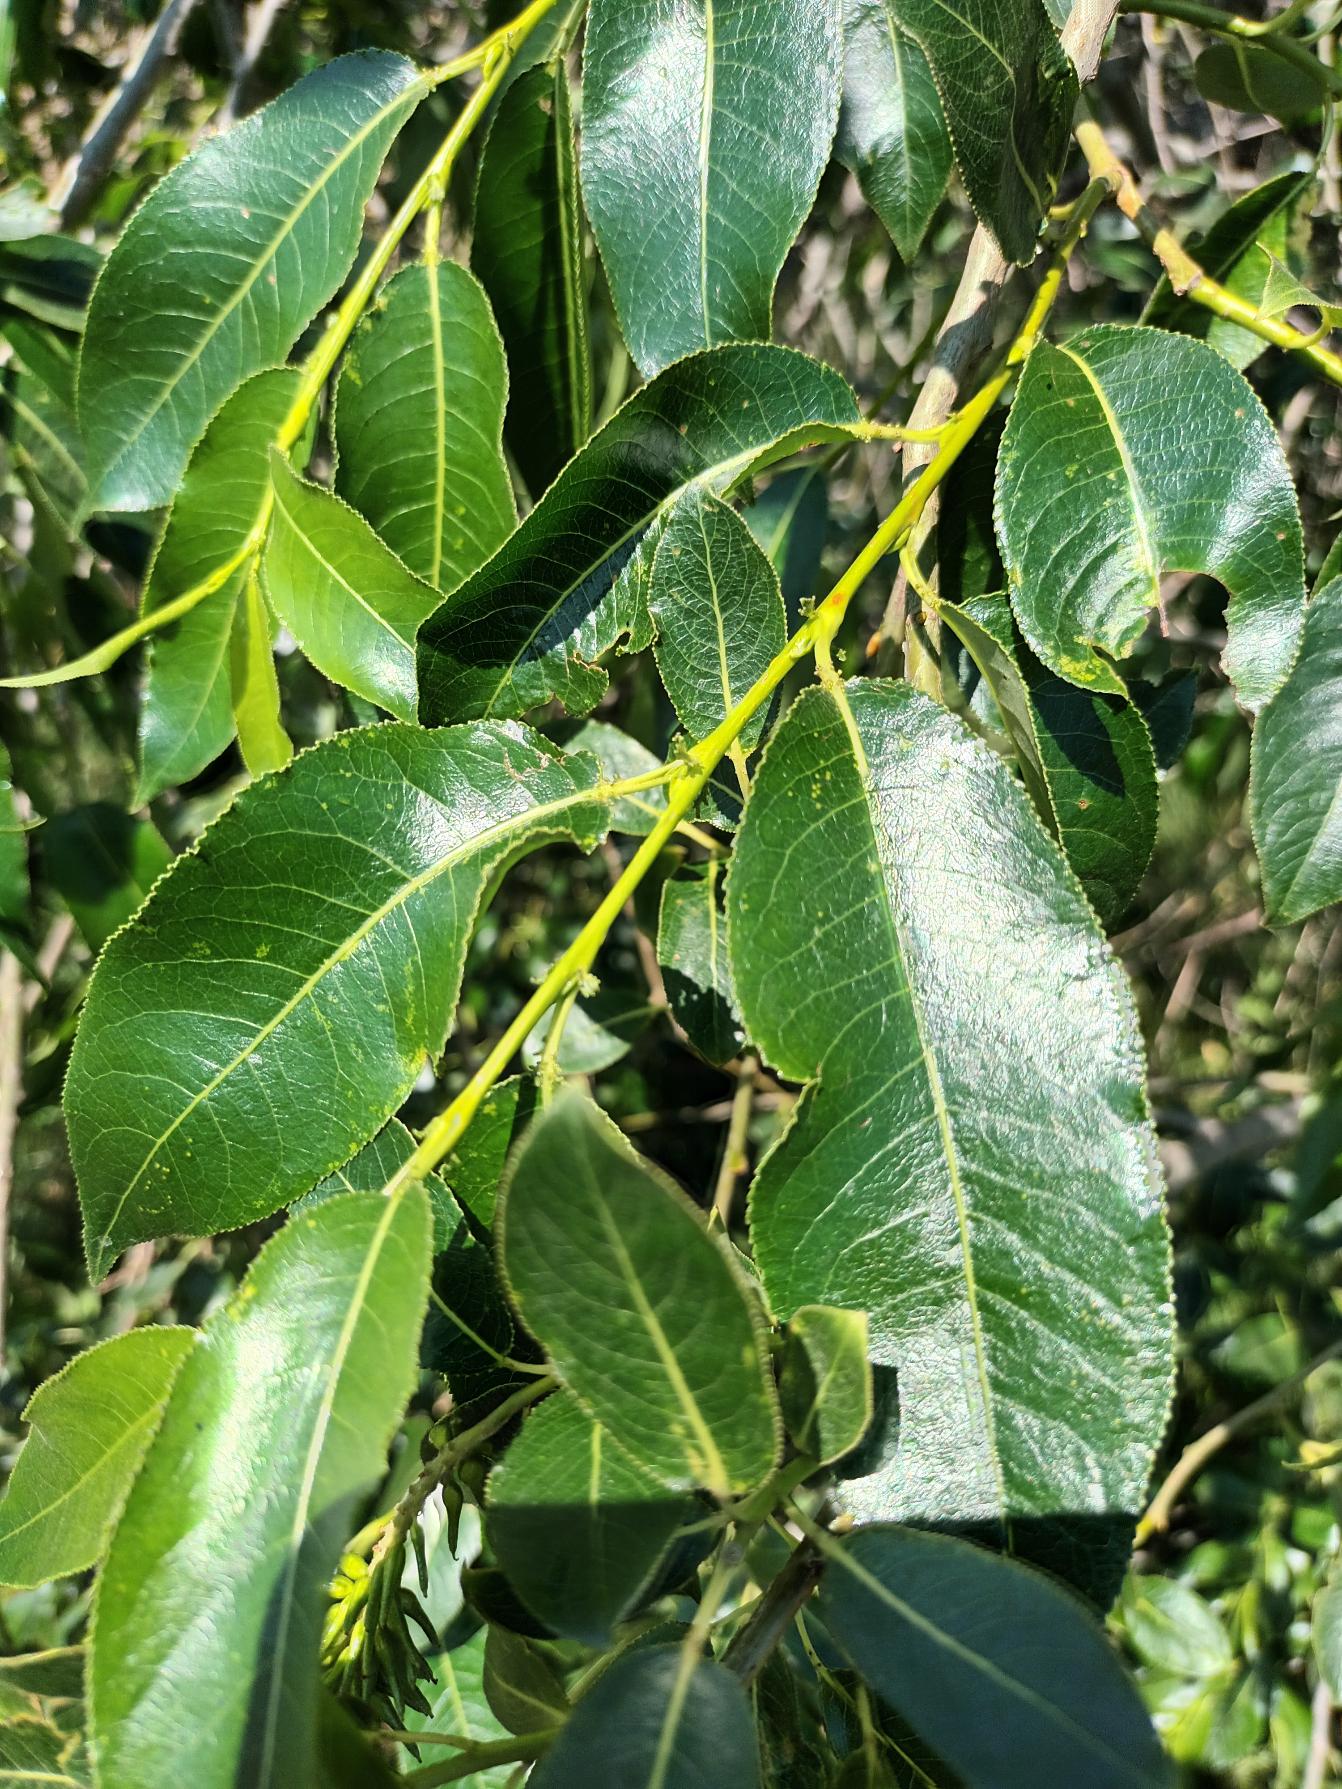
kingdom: Plantae
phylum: Tracheophyta
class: Magnoliopsida
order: Malpighiales
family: Salicaceae
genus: Salix
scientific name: Salix pentandra
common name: Femhannet pil
